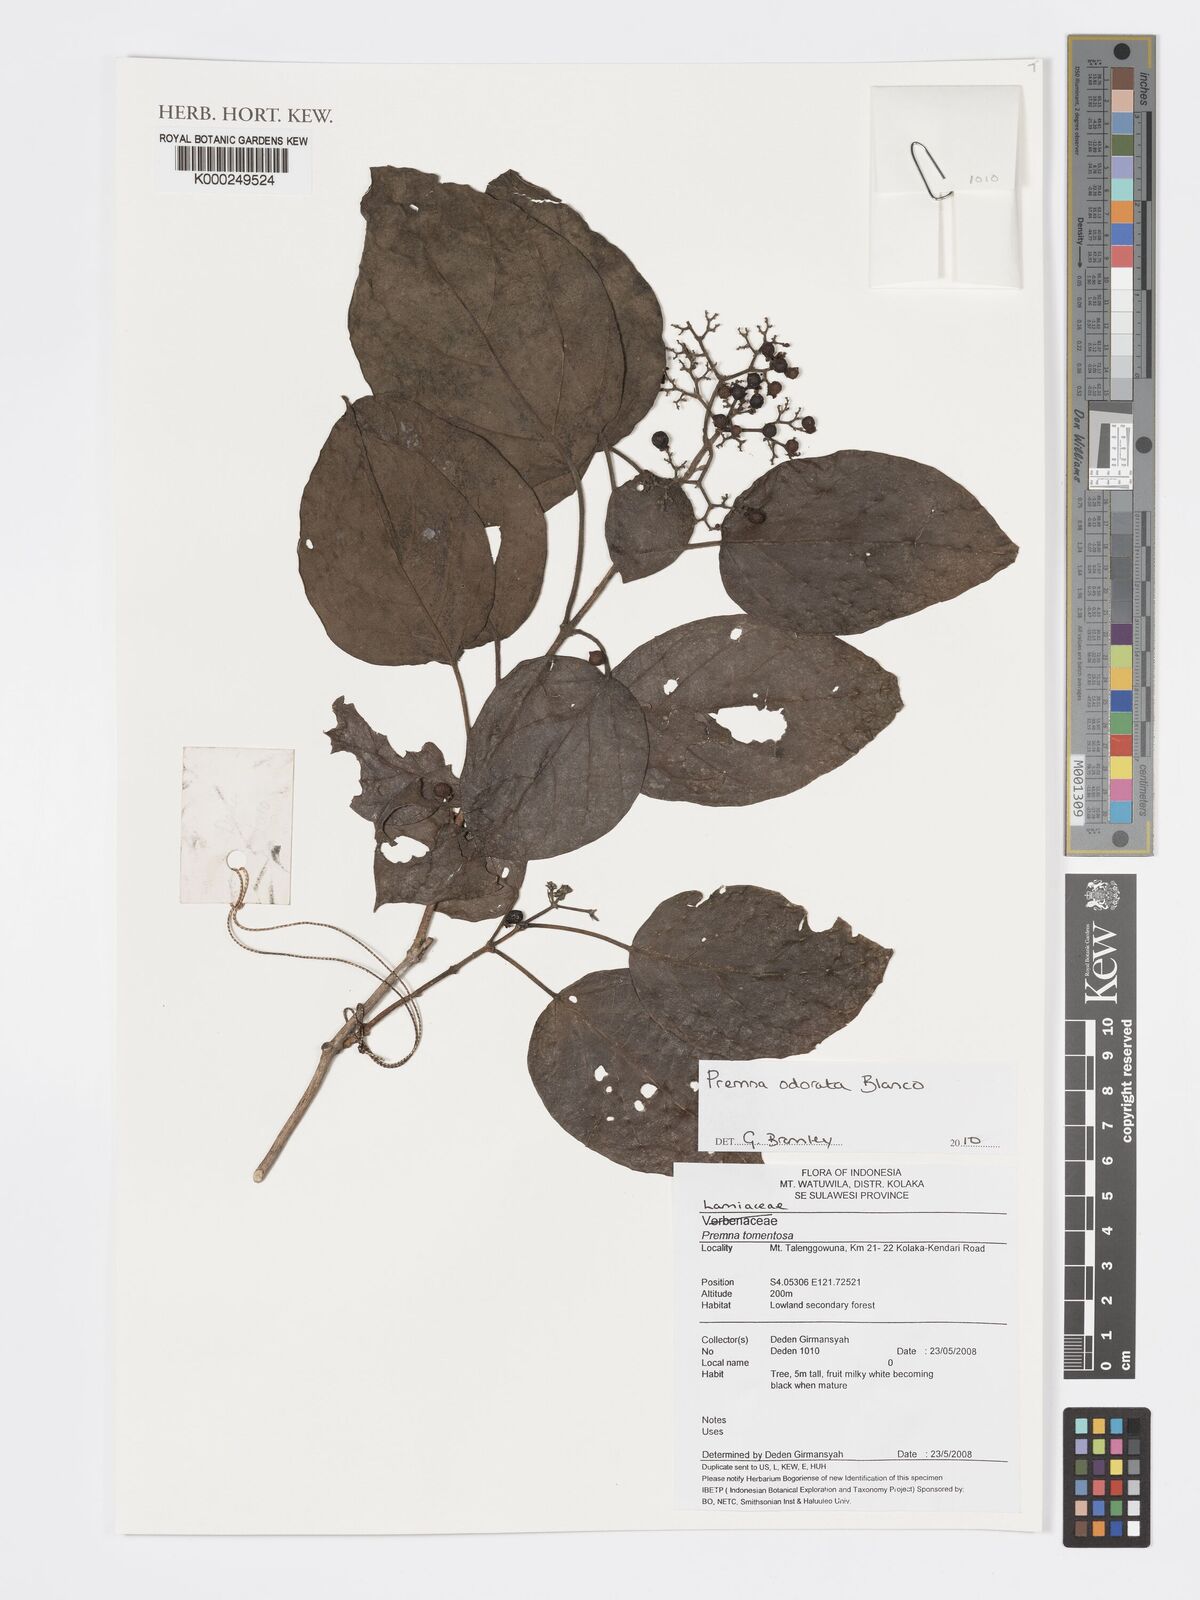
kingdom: Plantae
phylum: Tracheophyta
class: Magnoliopsida
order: Lamiales
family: Lamiaceae
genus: Premna
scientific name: Premna odorata
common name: Fragrant premna
